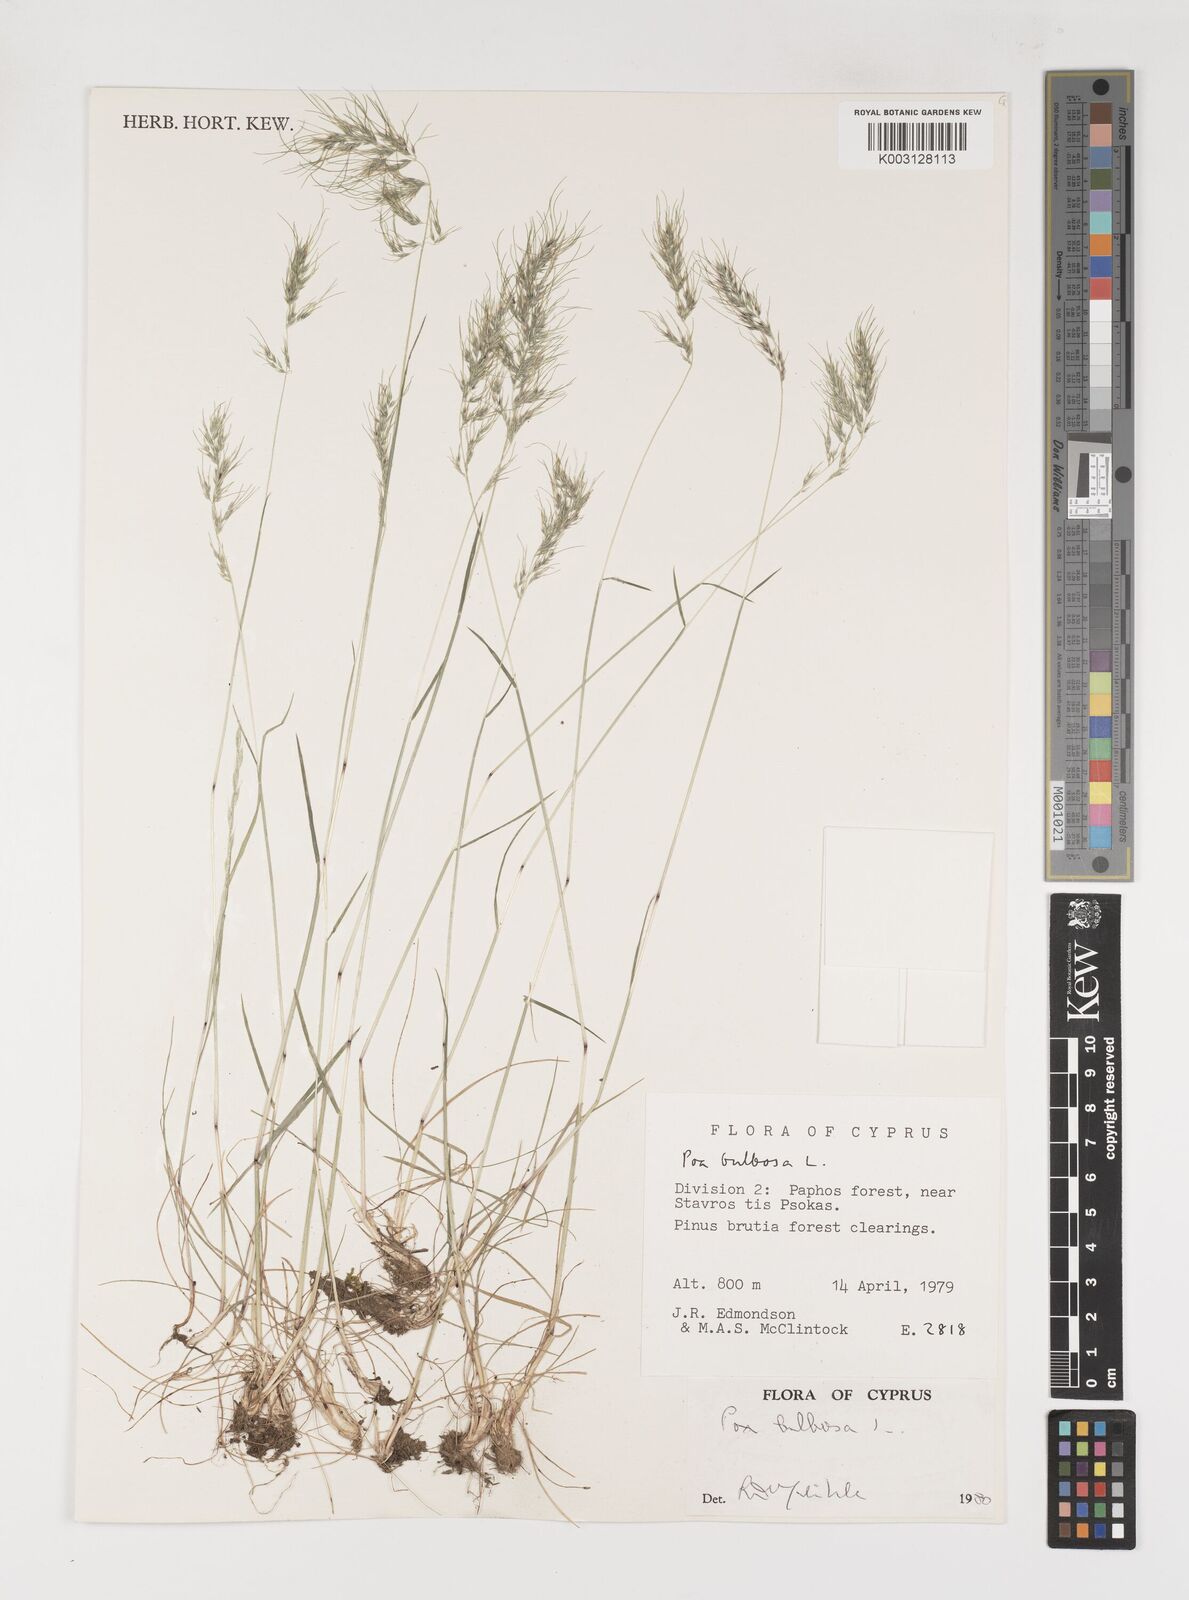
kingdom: Plantae
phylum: Tracheophyta
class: Liliopsida
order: Poales
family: Poaceae
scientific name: Poaceae
